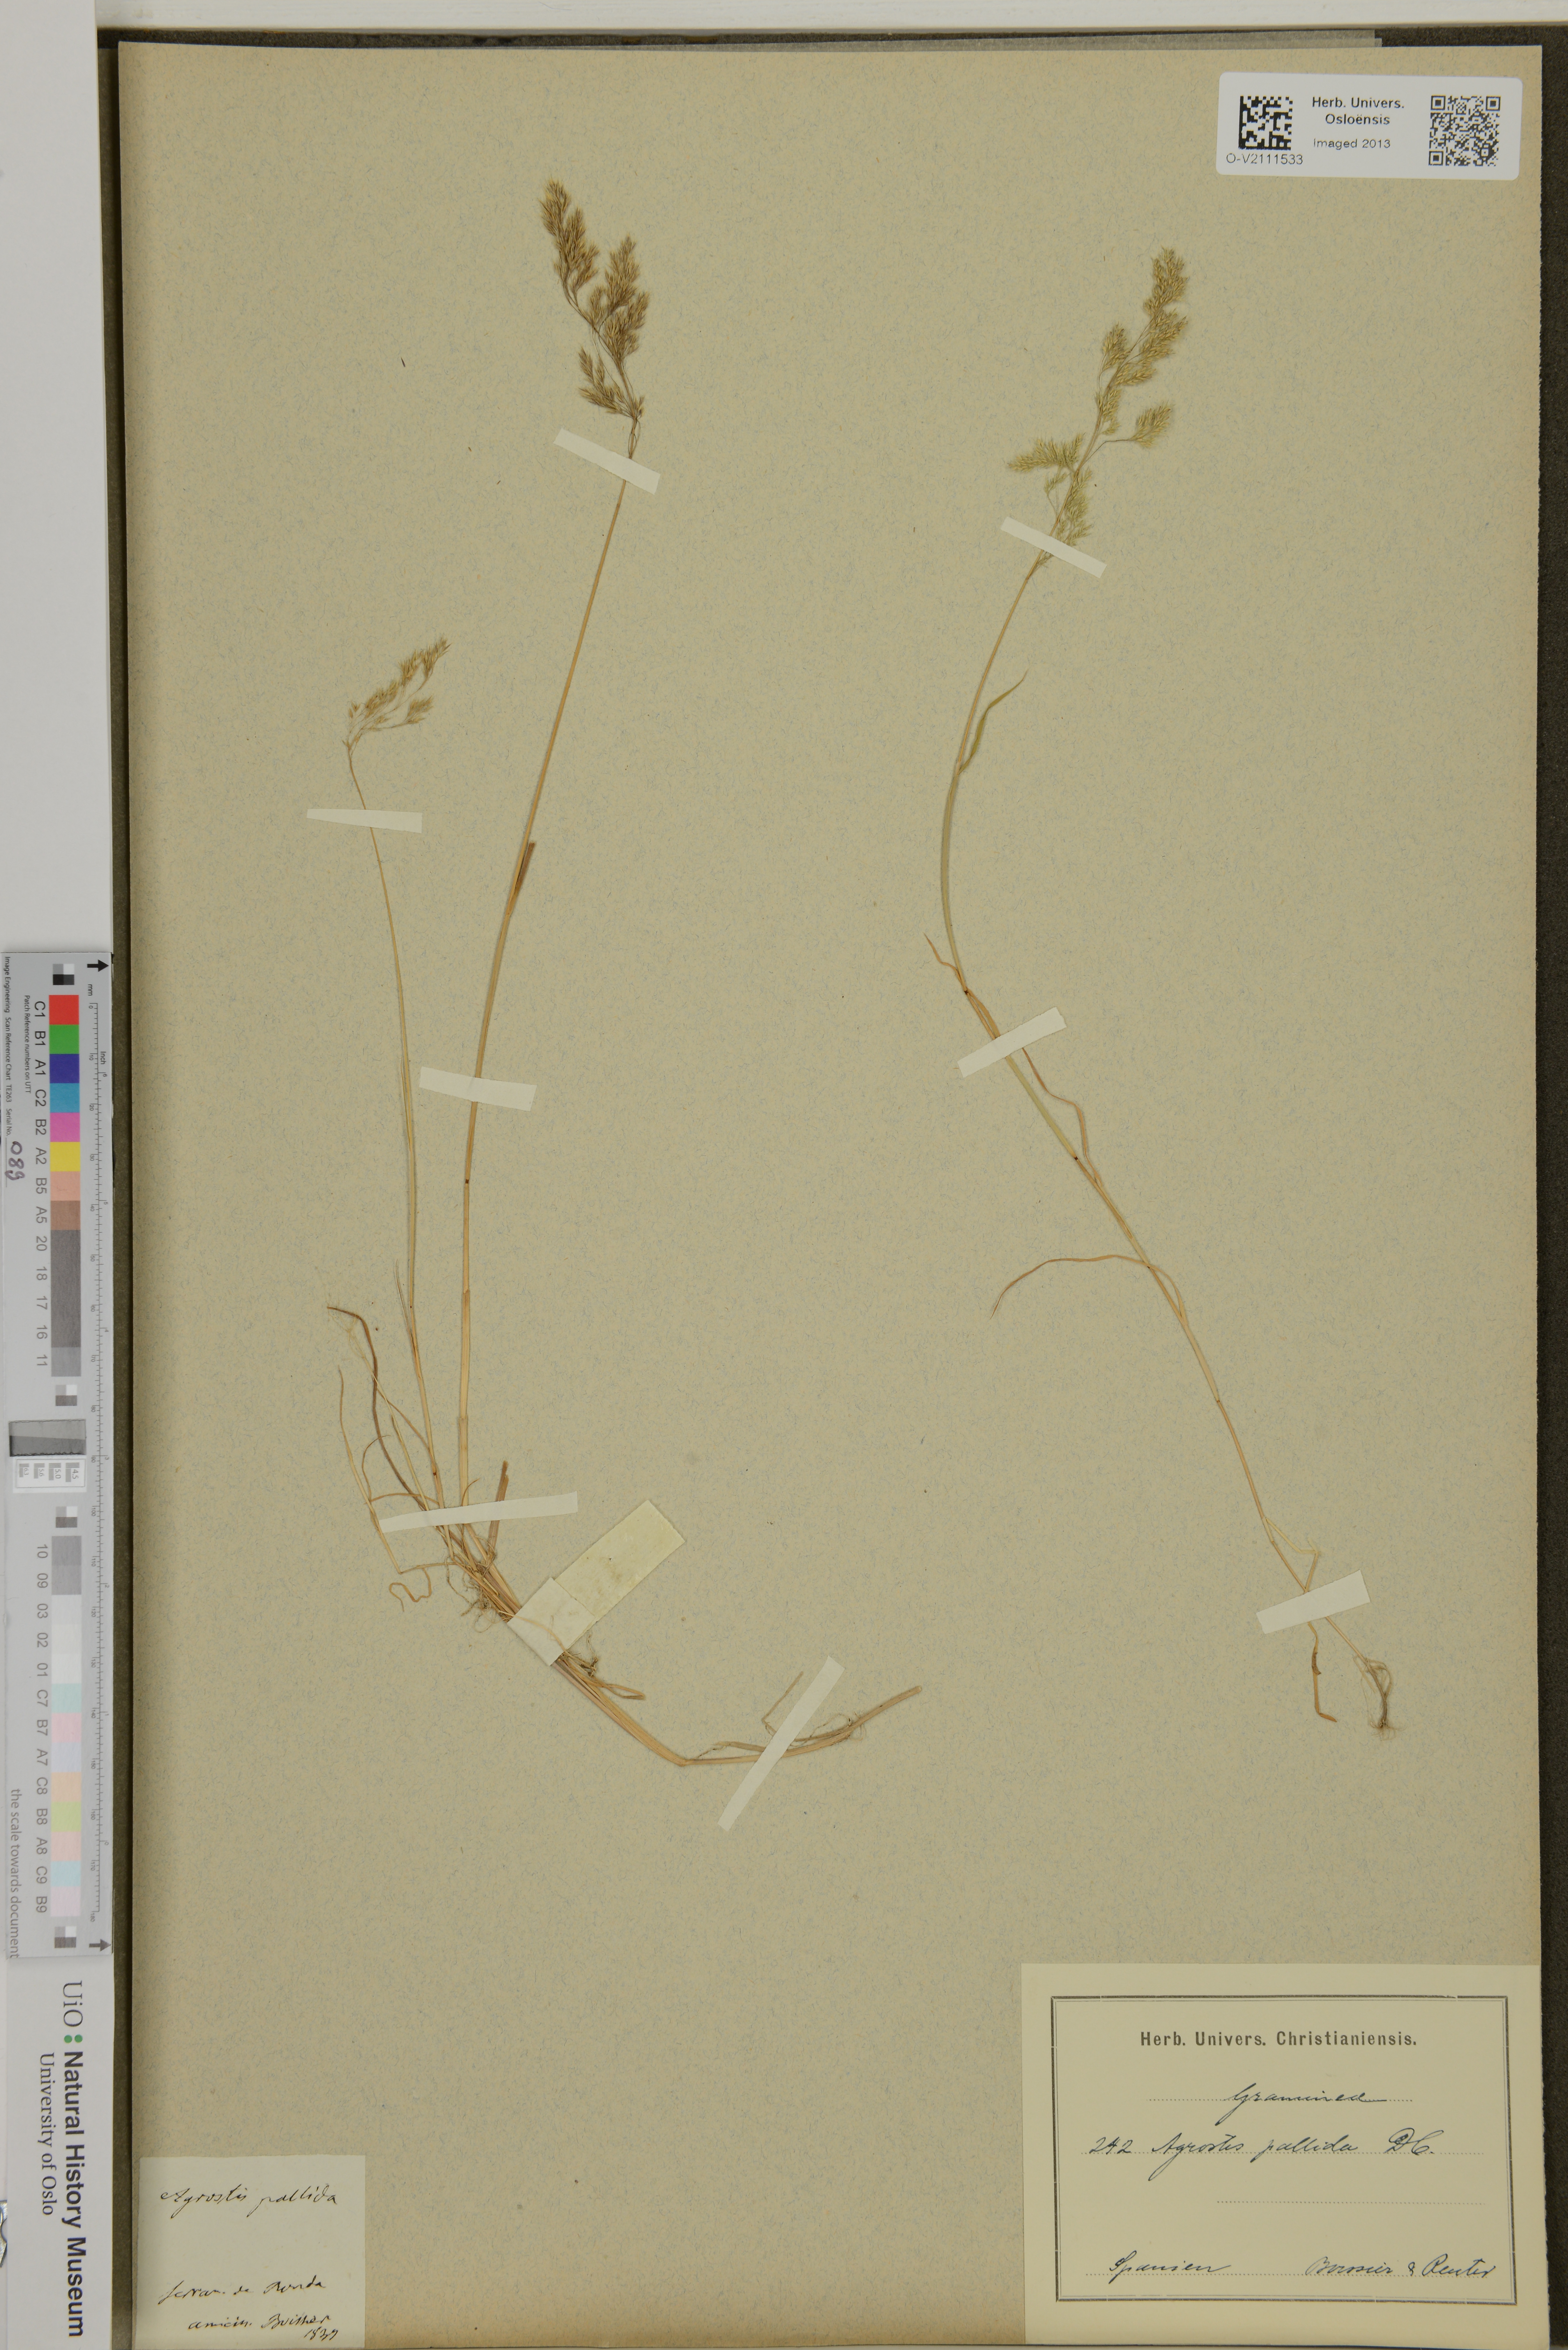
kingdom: Plantae
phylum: Tracheophyta
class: Liliopsida
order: Poales
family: Poaceae
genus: Agrostis
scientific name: Agrostis
